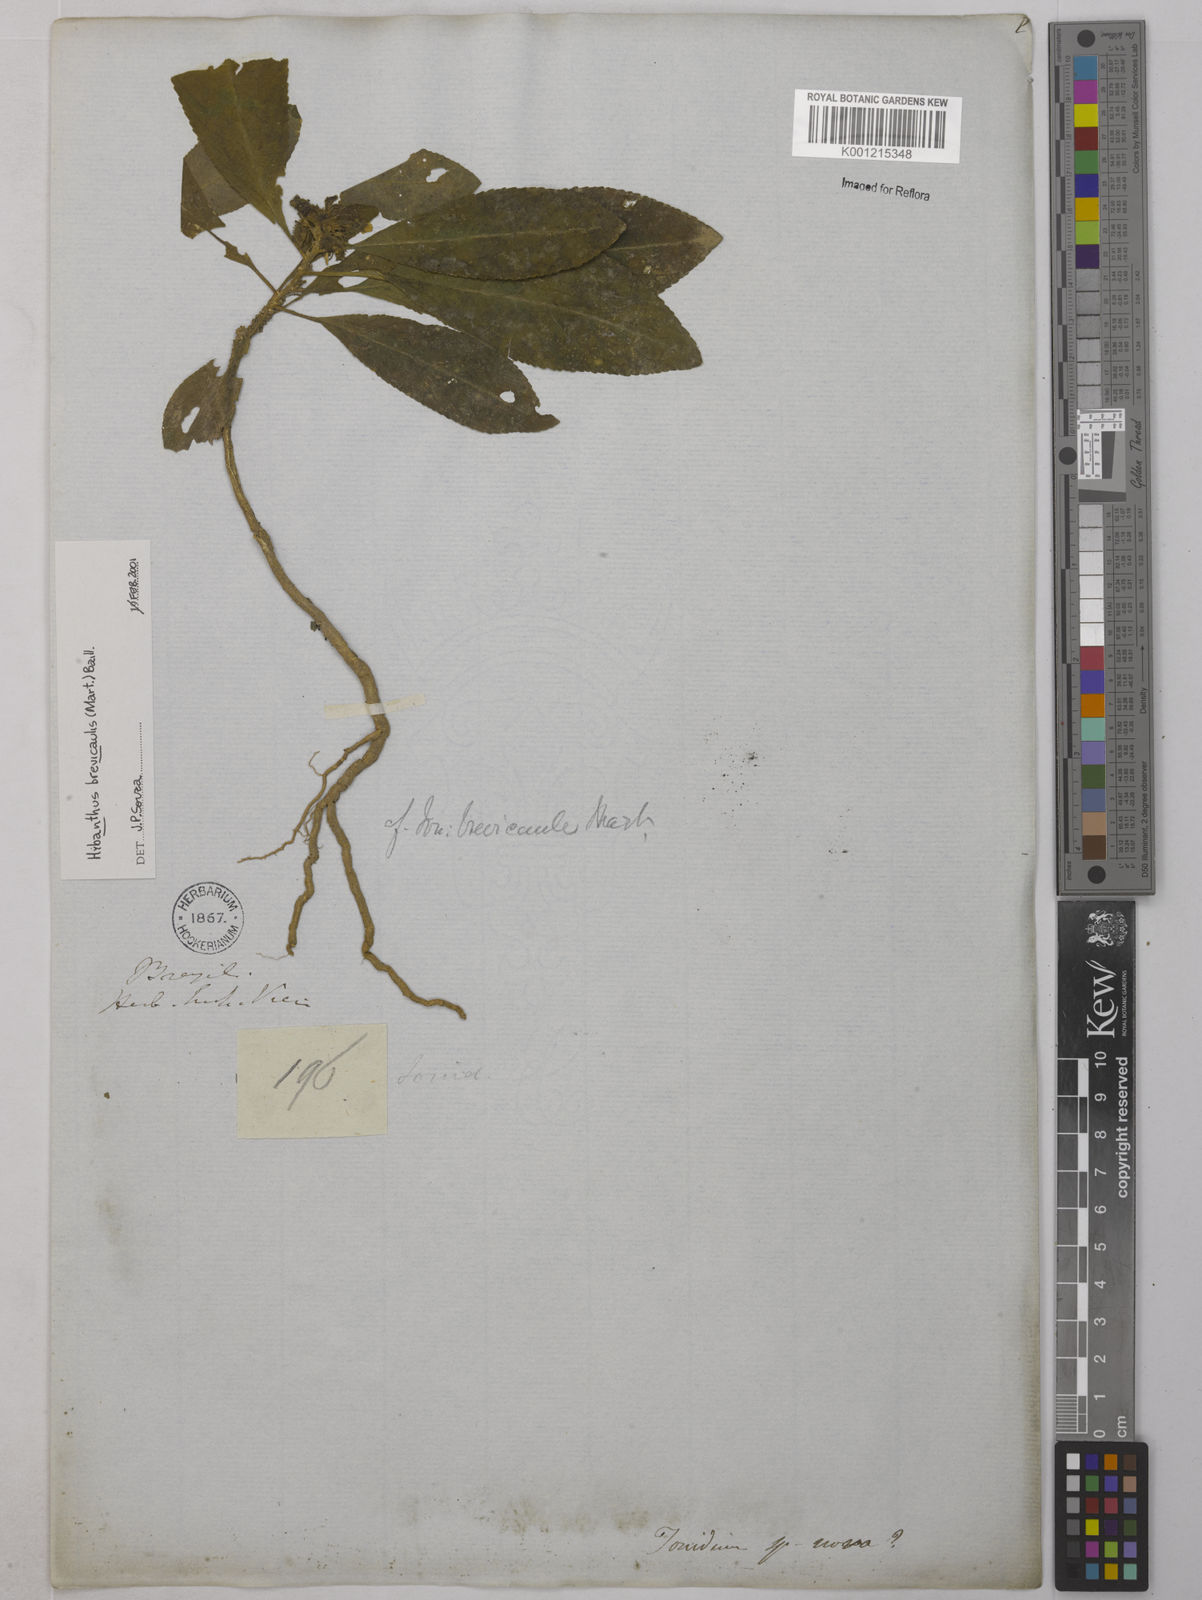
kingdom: Plantae
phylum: Tracheophyta
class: Magnoliopsida
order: Malpighiales
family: Violaceae
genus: Pombalia
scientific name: Pombalia brevicaulis
